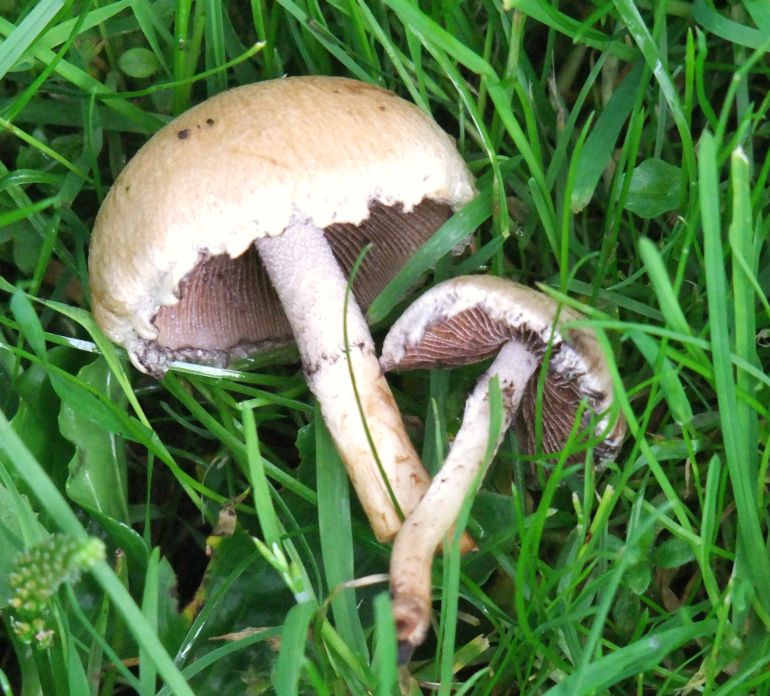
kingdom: Fungi
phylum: Basidiomycota
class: Agaricomycetes
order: Agaricales
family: Psathyrellaceae
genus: Lacrymaria
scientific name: Lacrymaria lacrymabunda
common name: grædende mørkhat
